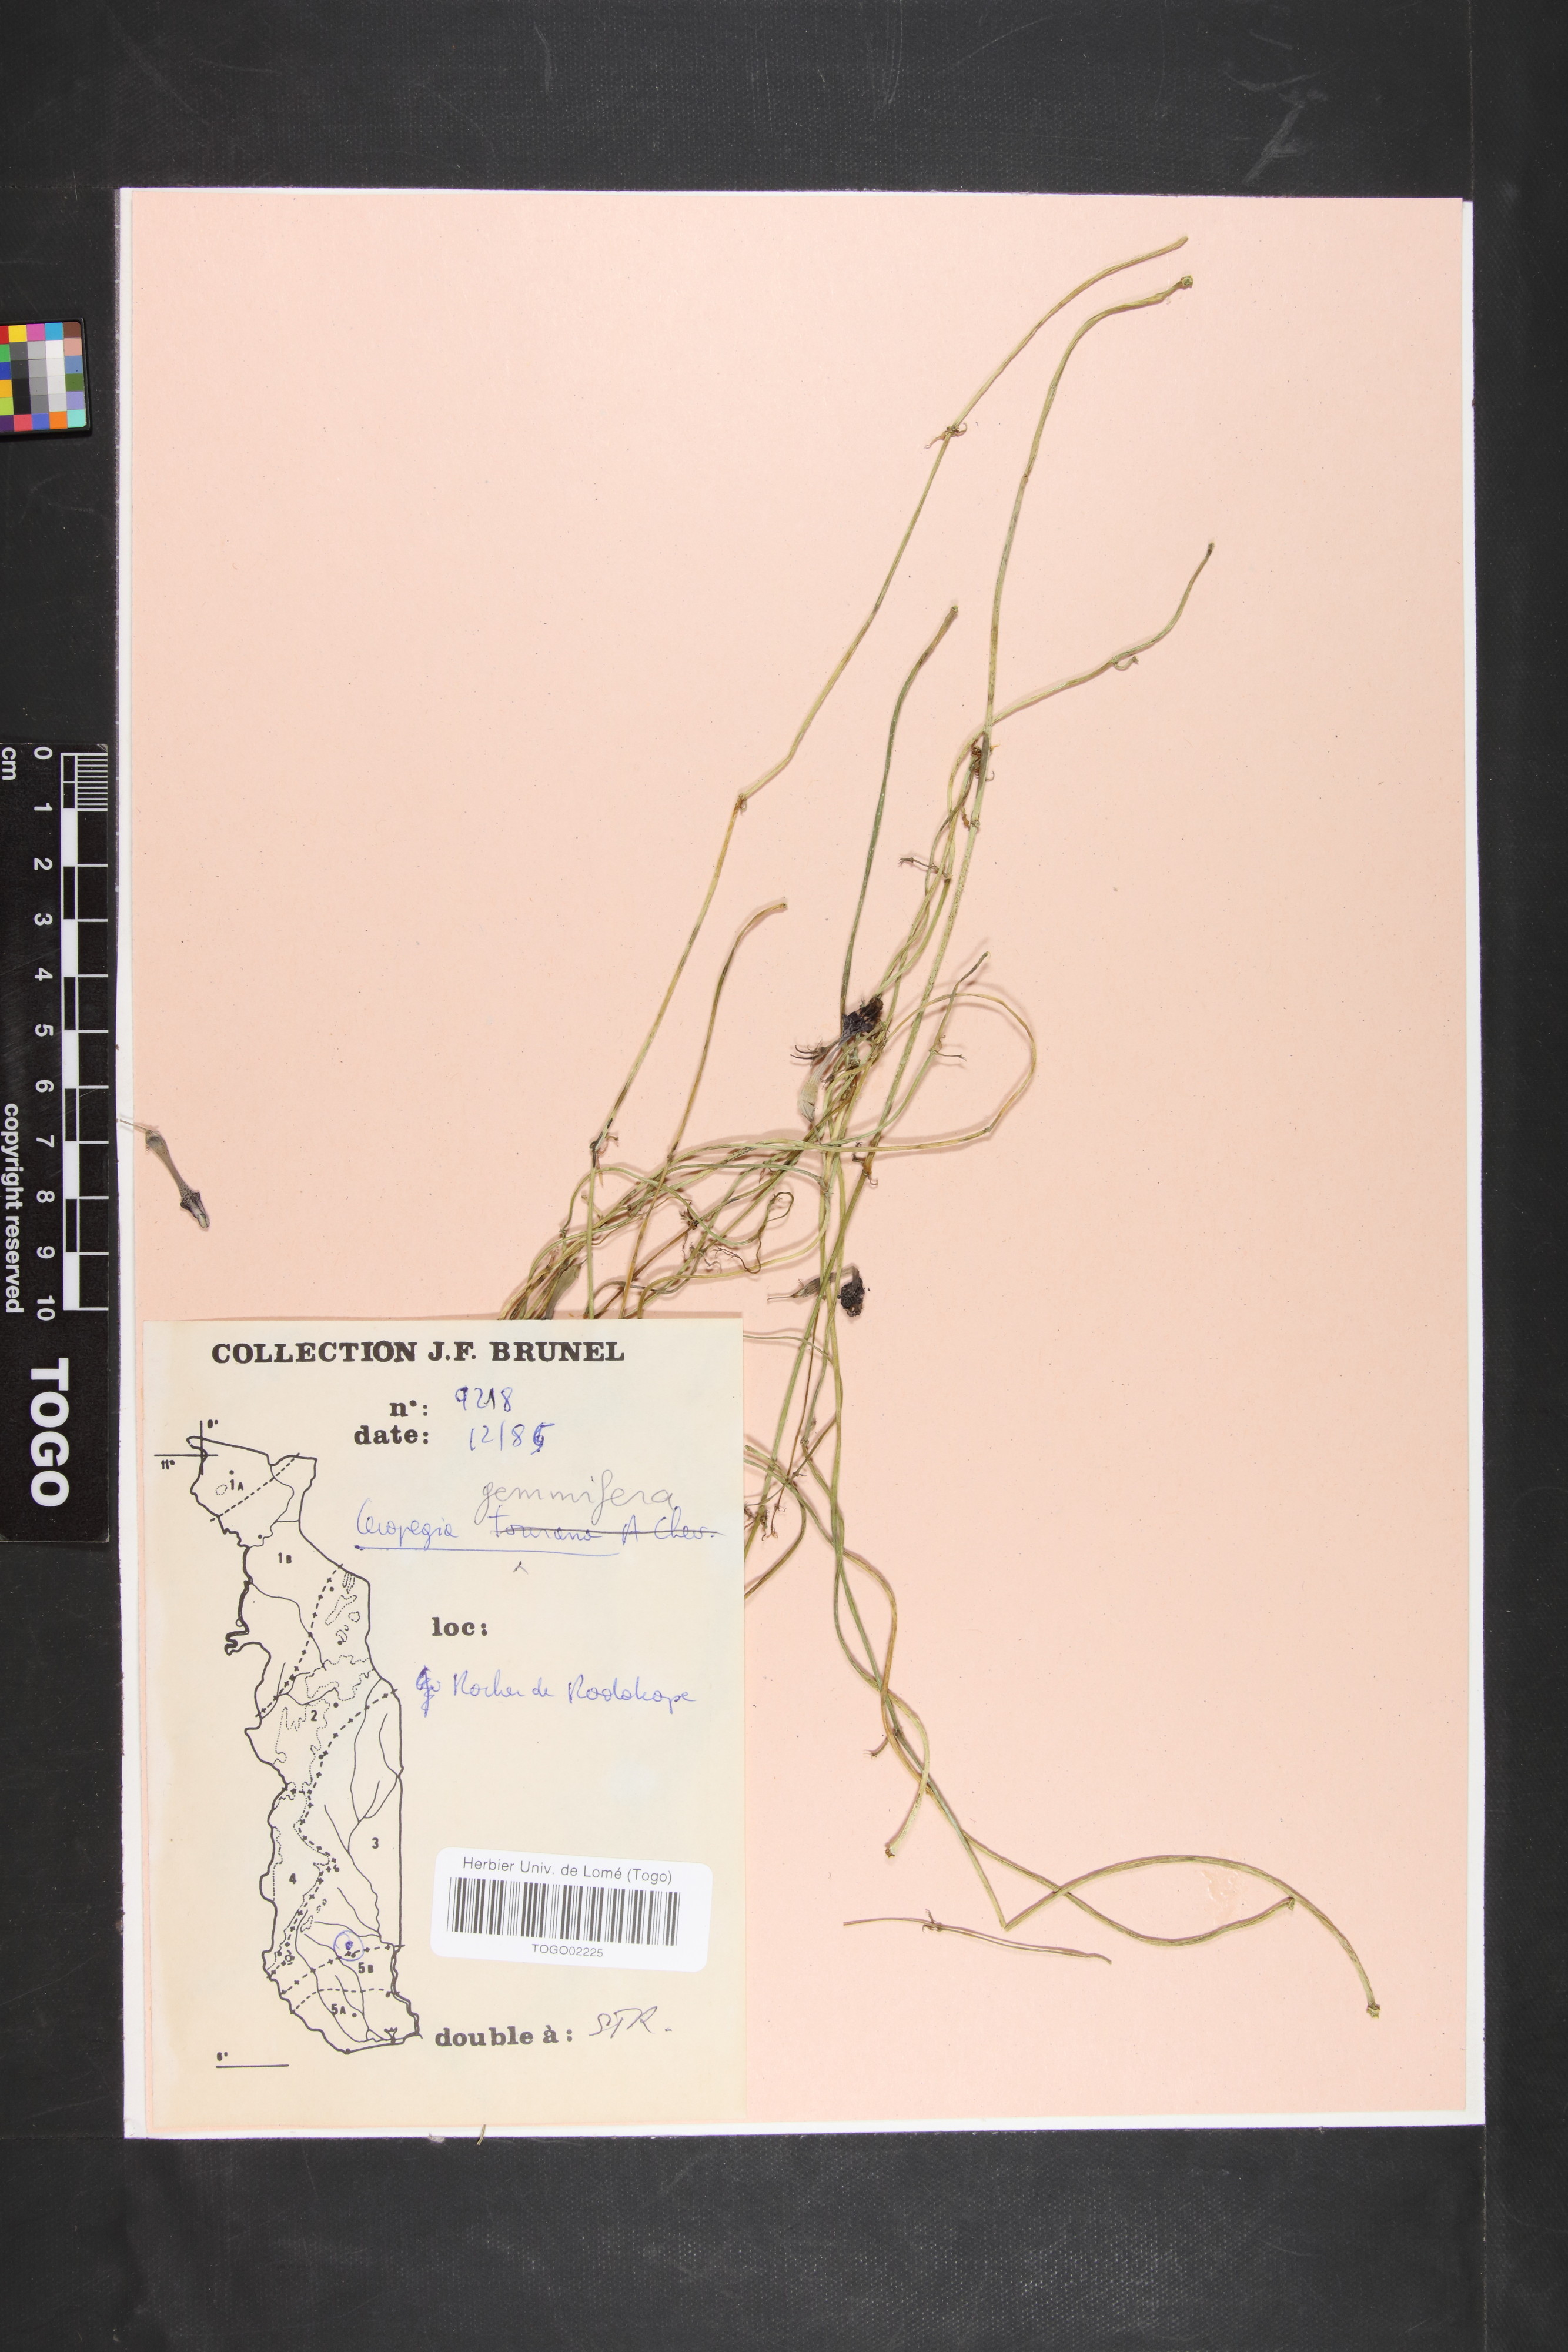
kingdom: Plantae
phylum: Tracheophyta
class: Magnoliopsida
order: Gentianales
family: Apocynaceae
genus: Ceropegia
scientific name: Ceropegia nilotica
